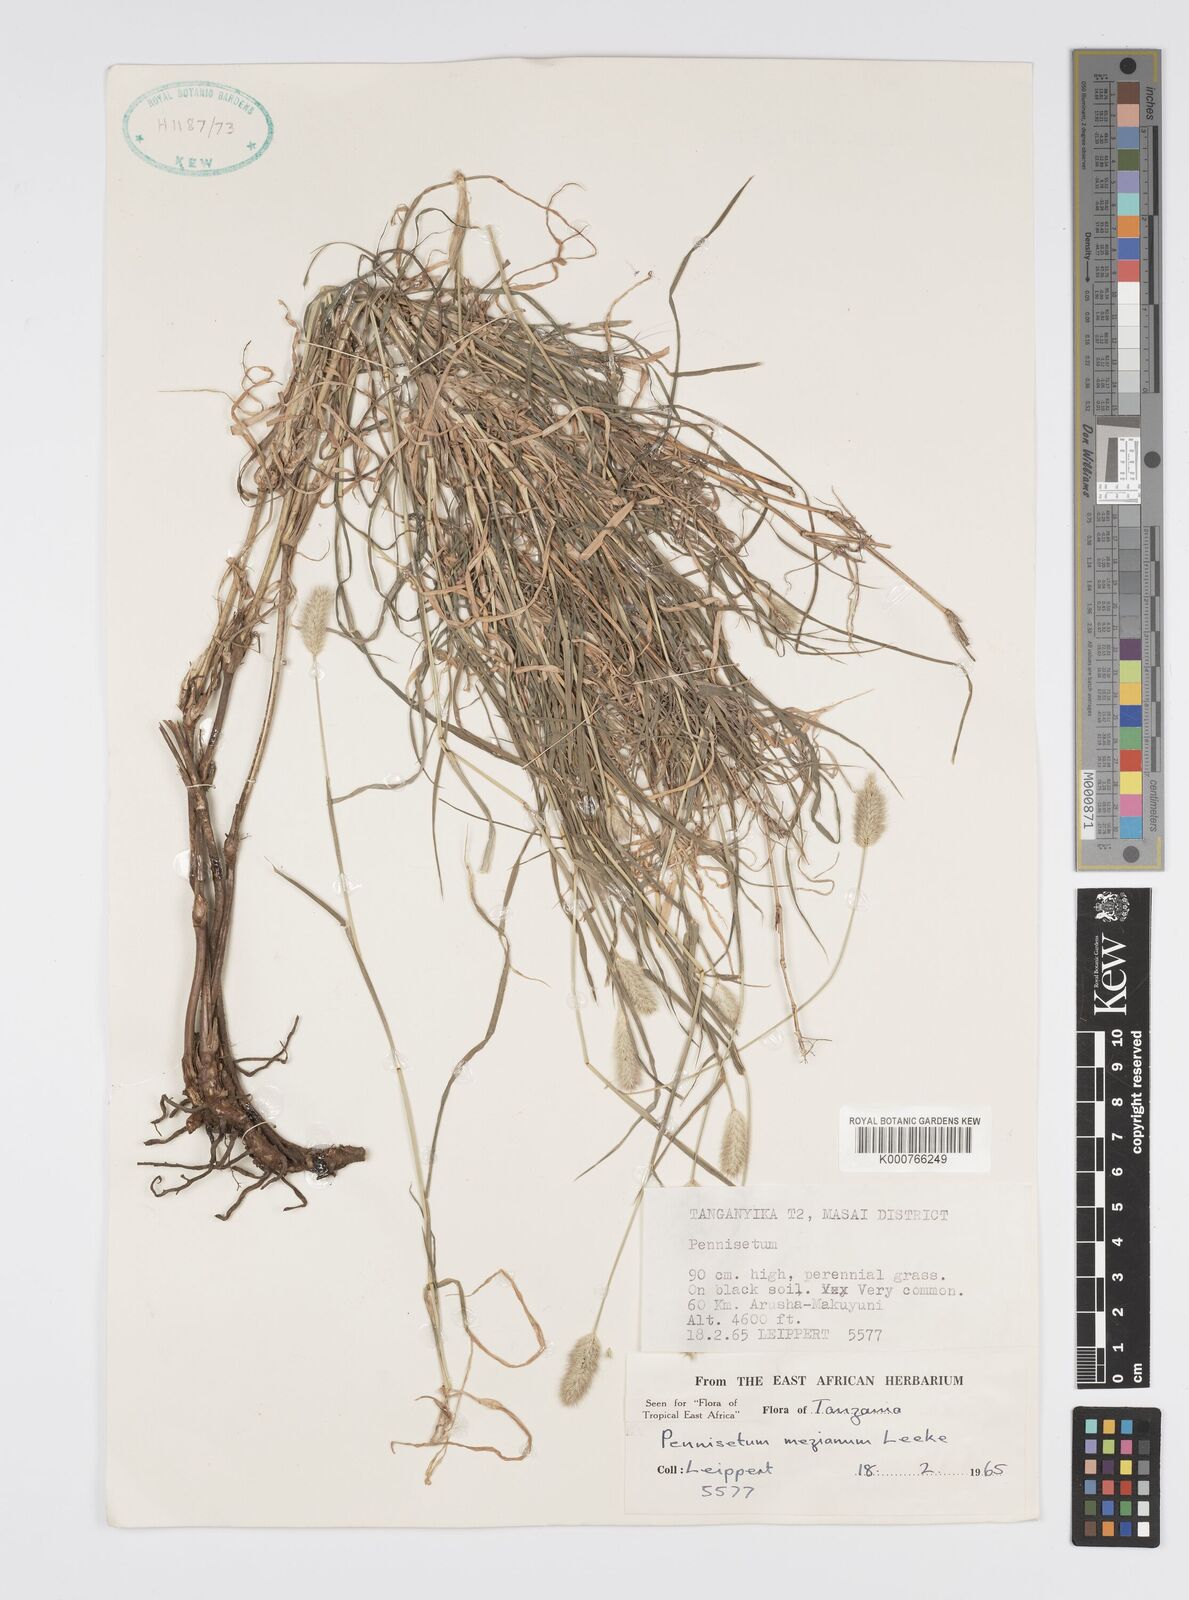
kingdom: Plantae
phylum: Tracheophyta
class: Liliopsida
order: Poales
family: Poaceae
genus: Cenchrus
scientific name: Cenchrus mezianus
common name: Bamboo grass
